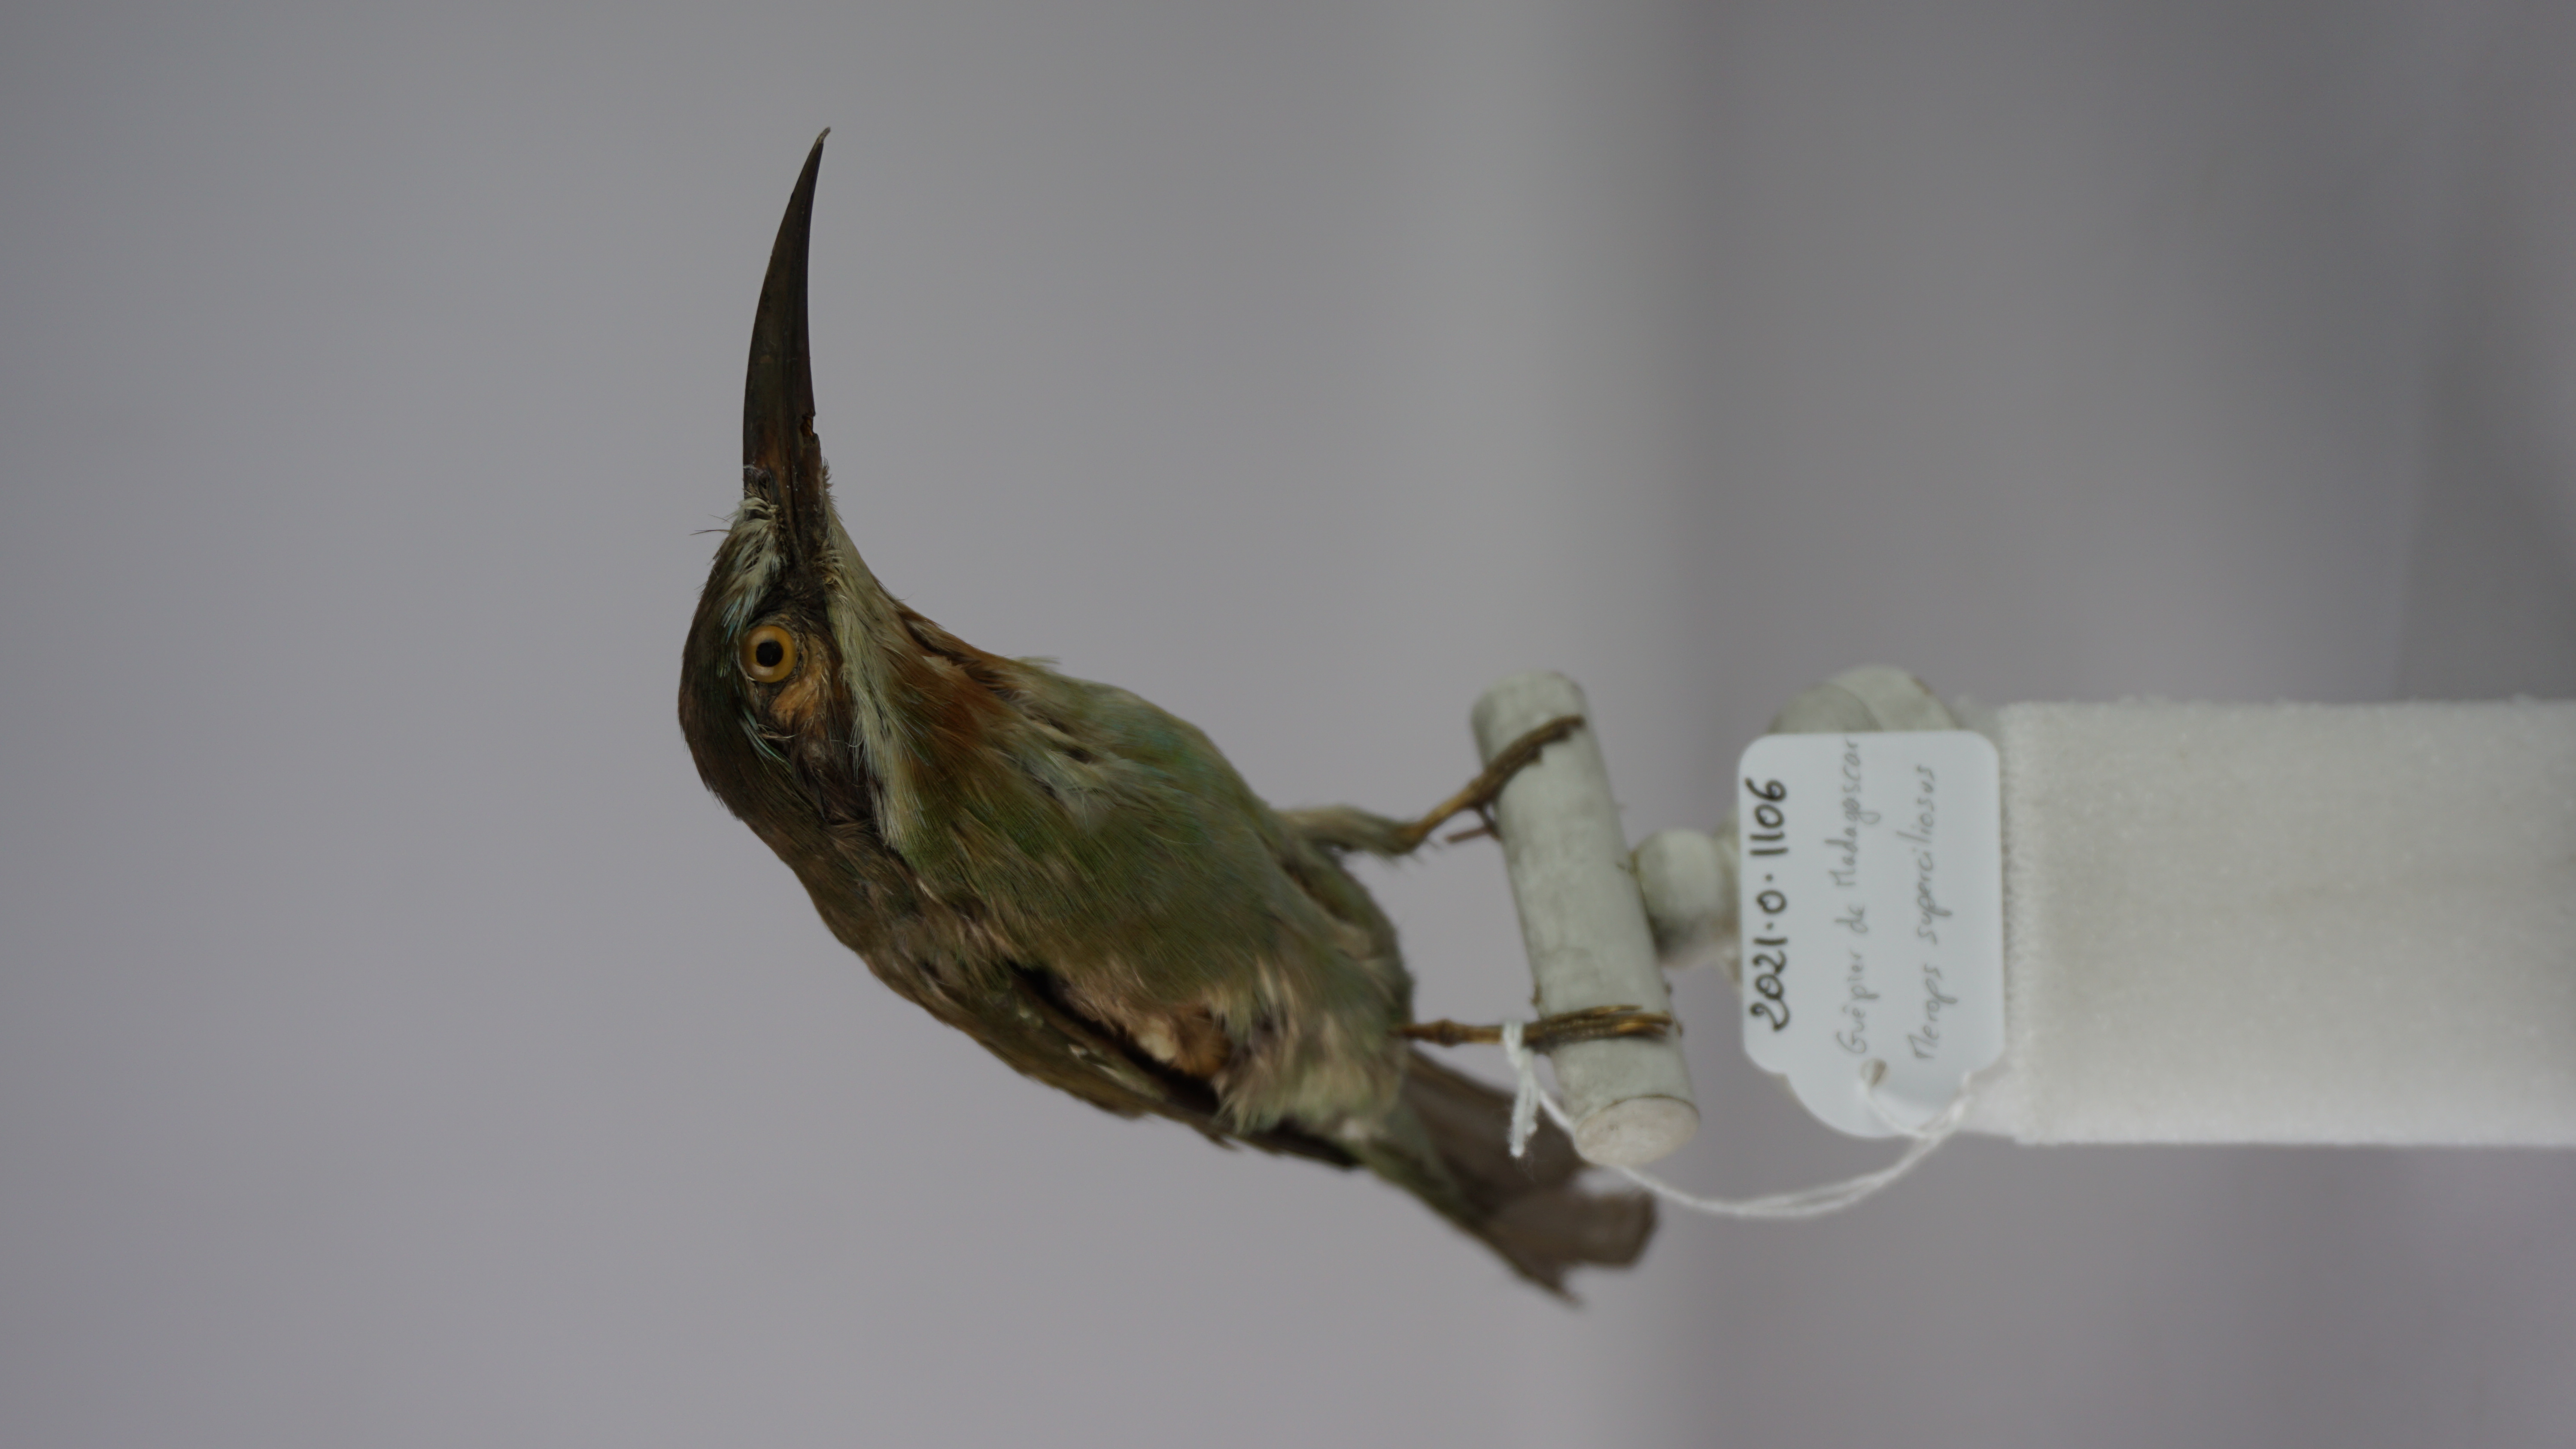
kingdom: Animalia
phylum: Chordata
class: Aves
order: Coraciiformes
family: Meropidae
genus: Merops
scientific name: Merops superciliosus
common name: Olive bee-eater
